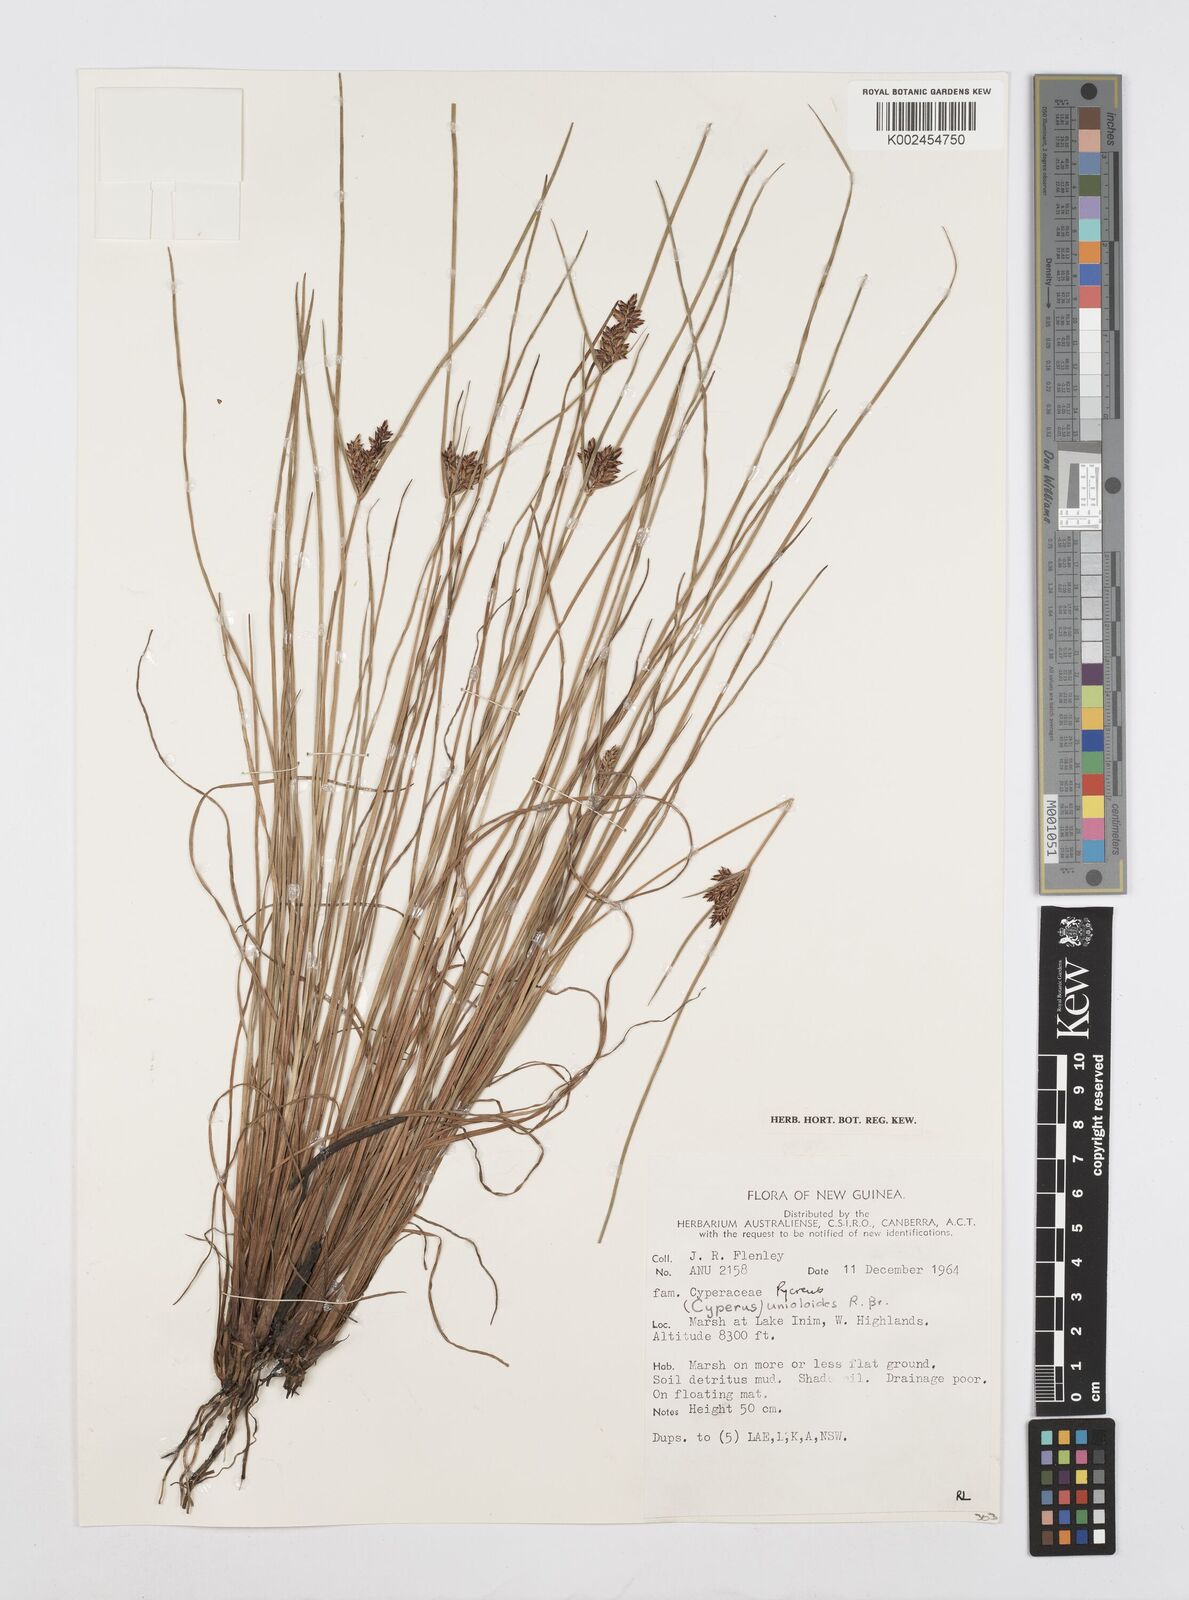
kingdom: Plantae
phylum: Tracheophyta
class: Liliopsida
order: Poales
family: Cyperaceae
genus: Cyperus
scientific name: Cyperus unioloides
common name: Uniola flatsedge
